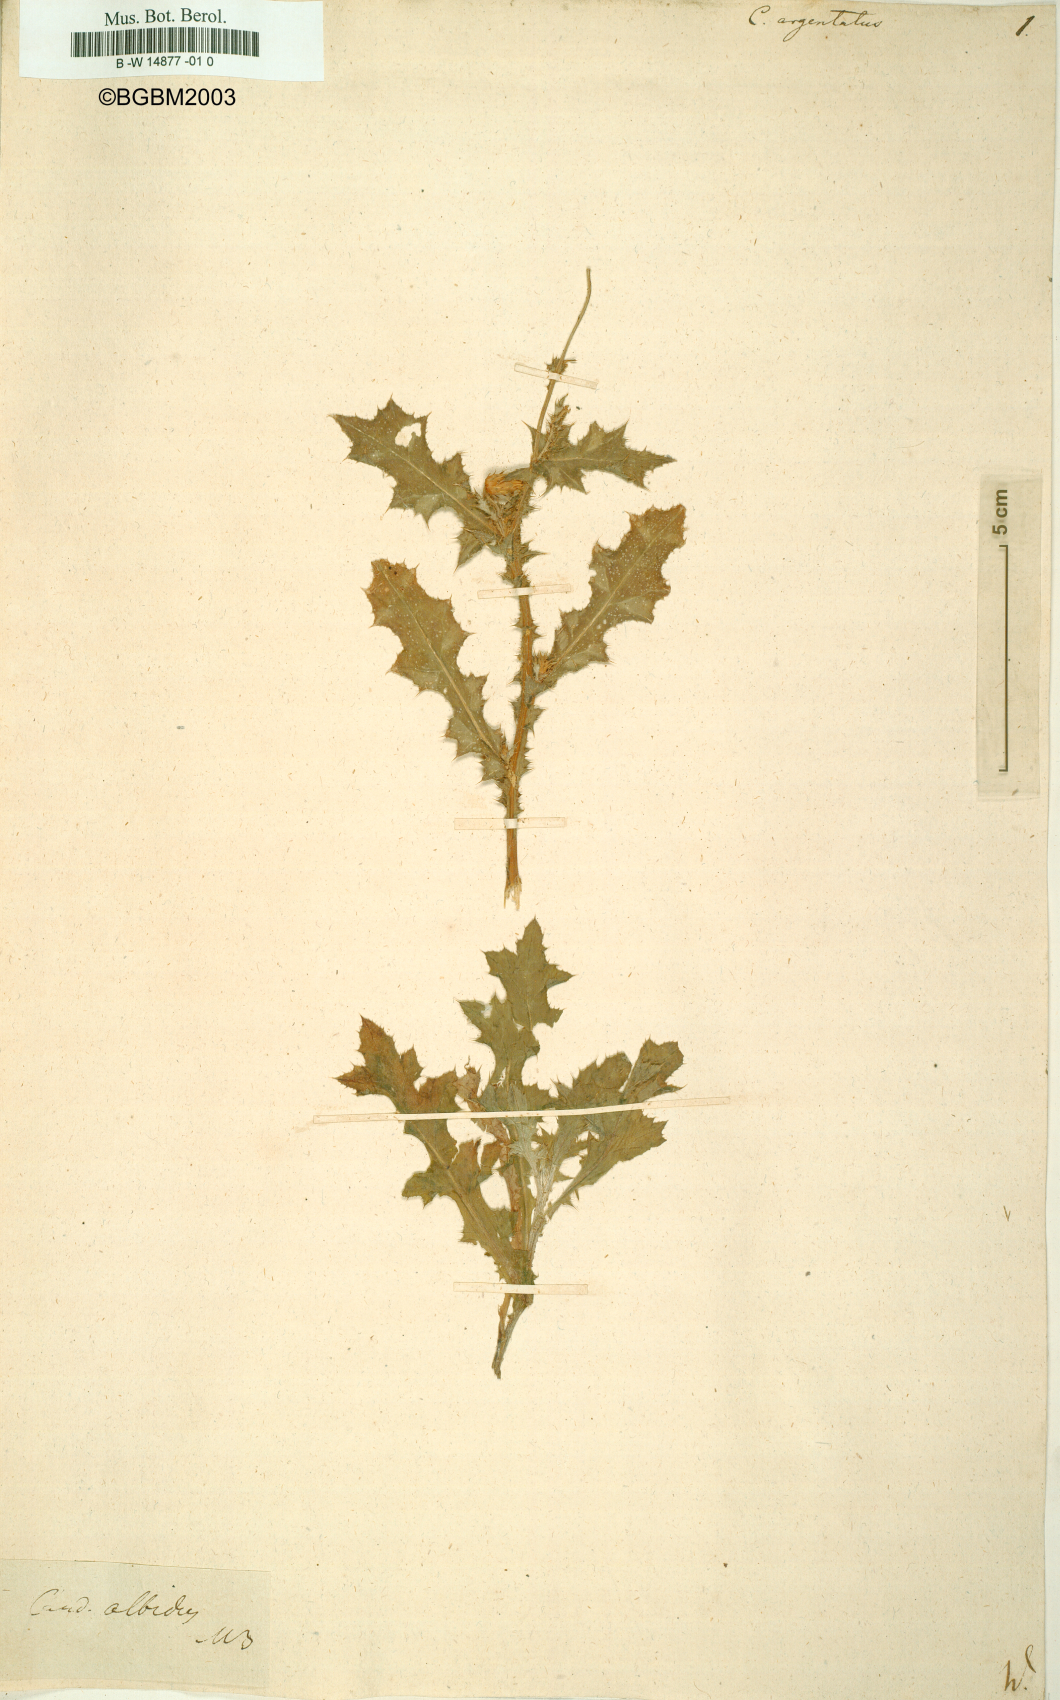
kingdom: Plantae
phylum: Tracheophyta
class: Magnoliopsida
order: Asterales
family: Asteraceae
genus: Carduus
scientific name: Carduus argentatus
